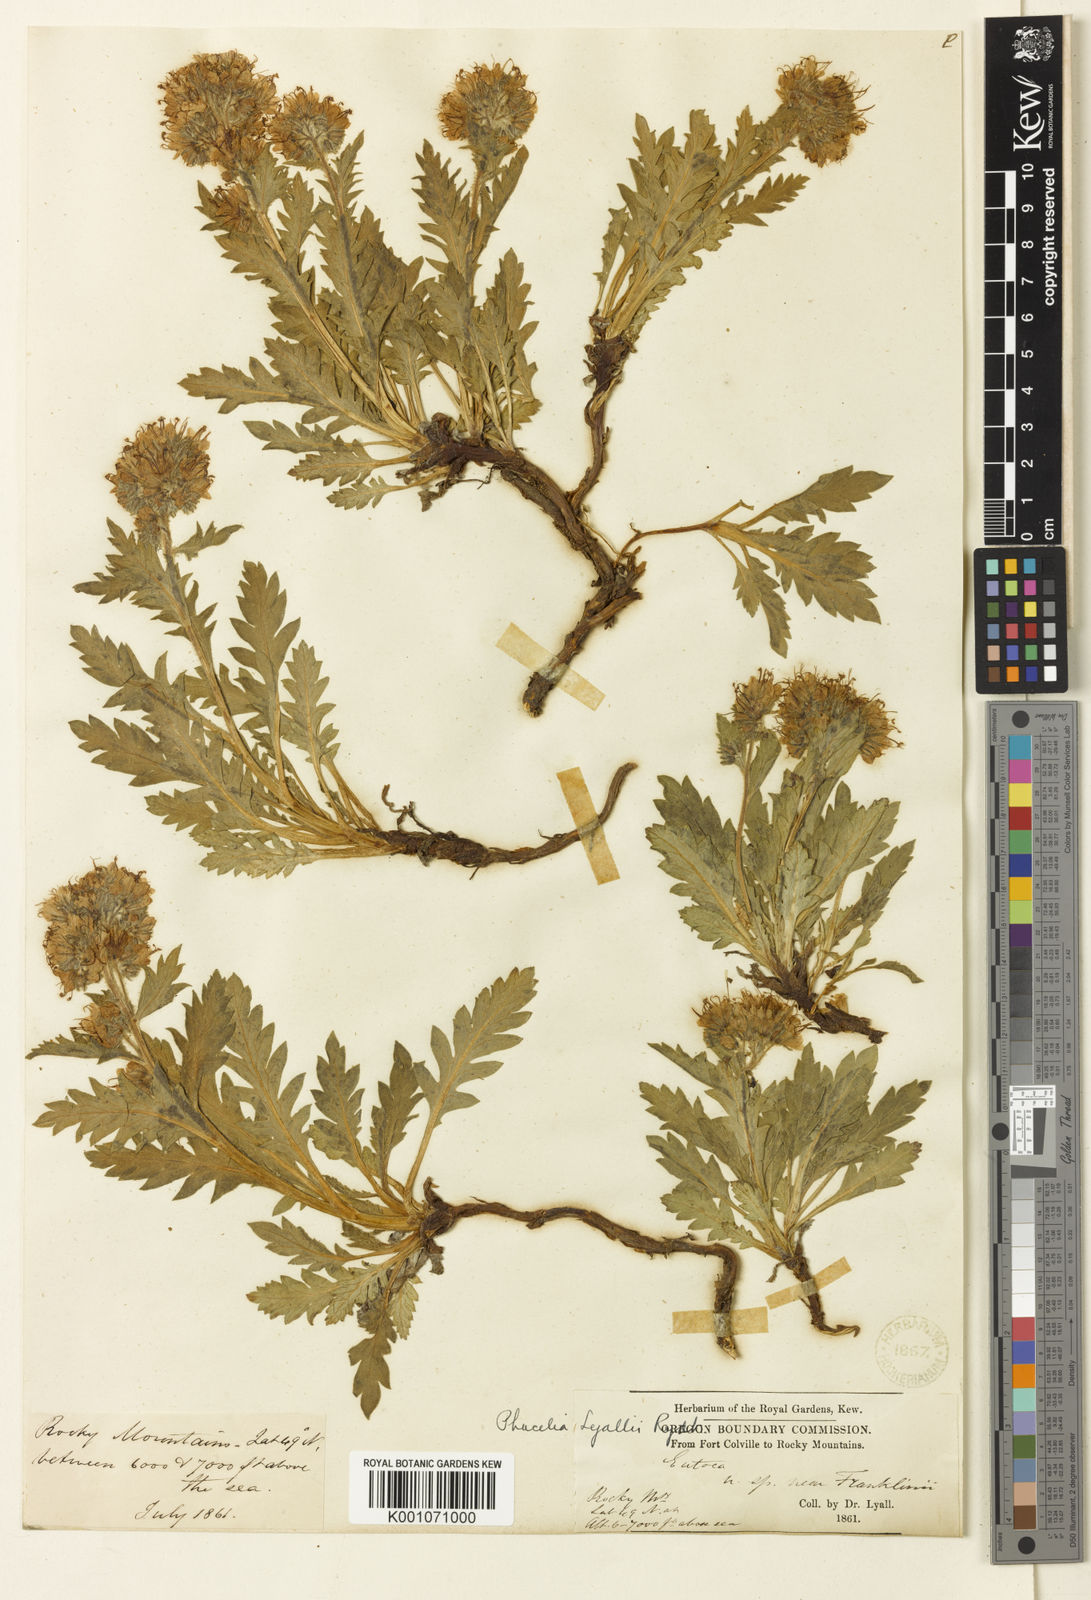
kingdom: Plantae
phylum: Tracheophyta
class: Magnoliopsida
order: Boraginales
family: Hydrophyllaceae
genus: Phacelia
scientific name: Phacelia lyallii
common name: Lyall's phacelia
